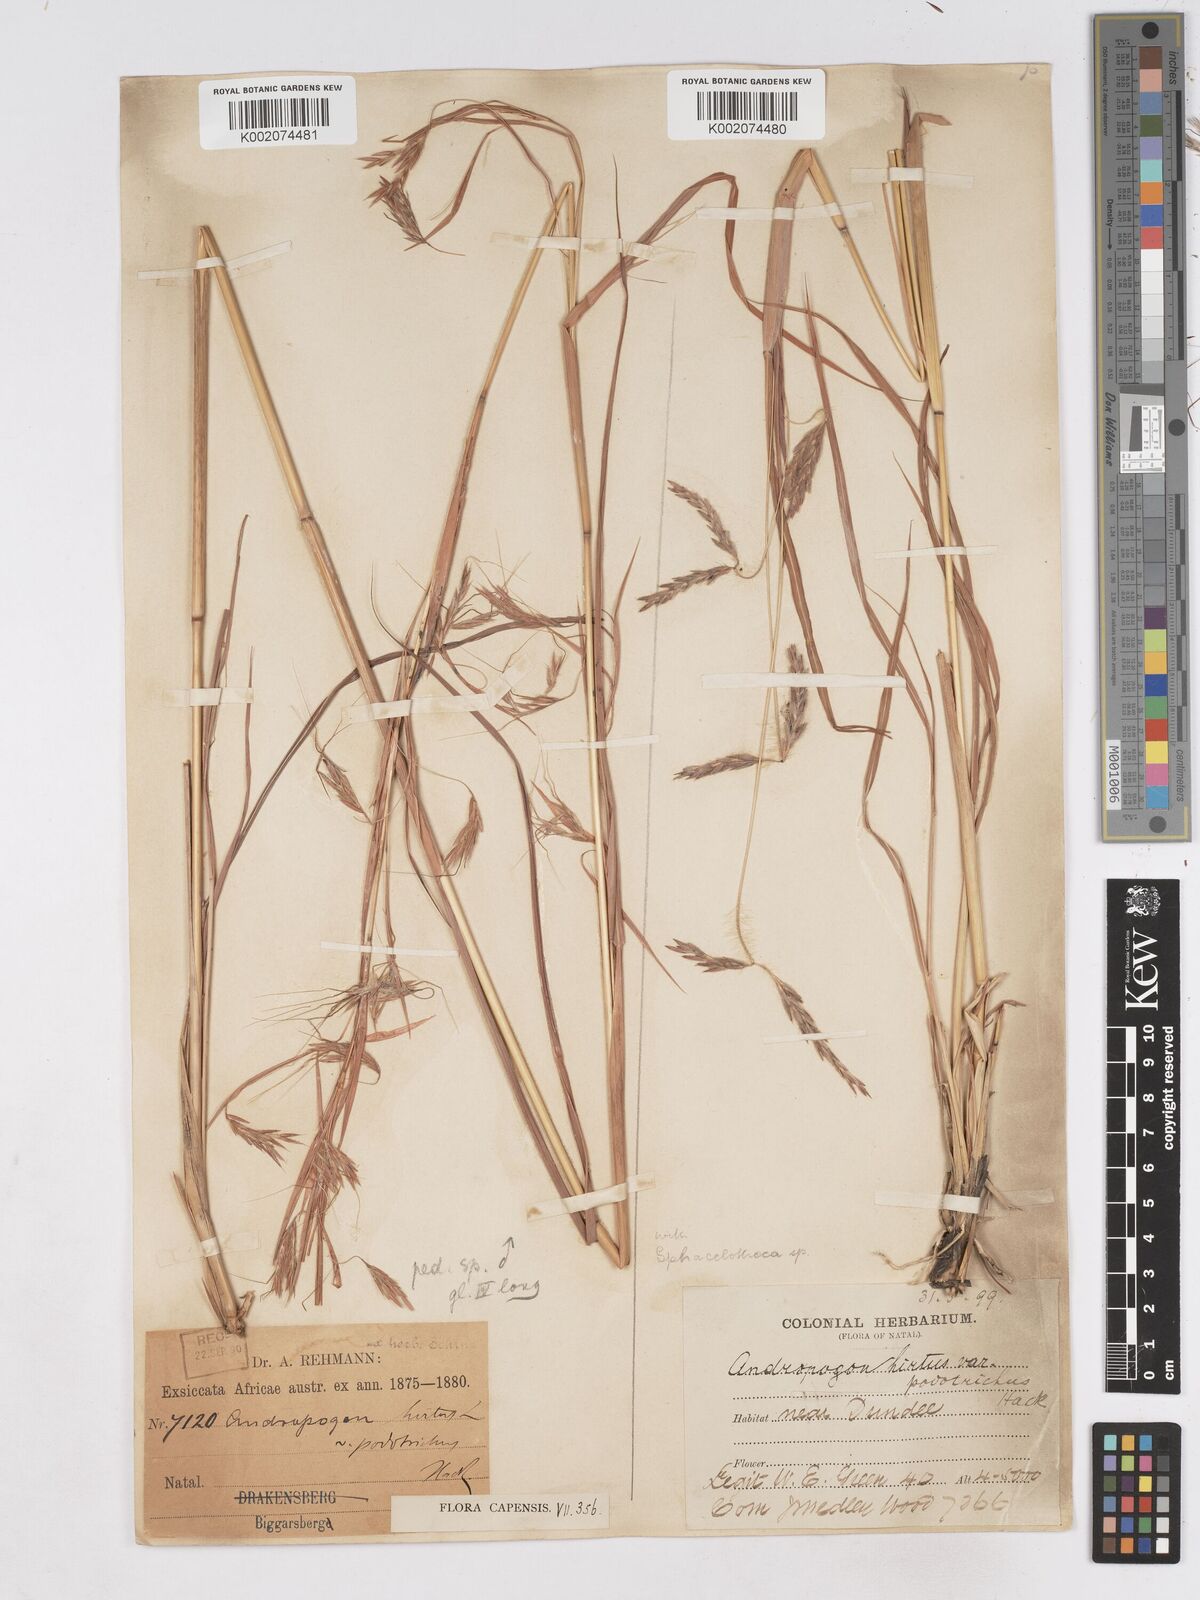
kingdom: Plantae
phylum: Tracheophyta
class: Liliopsida
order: Poales
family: Poaceae
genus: Hyparrhenia
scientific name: Hyparrhenia hirta
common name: Thatching grass
